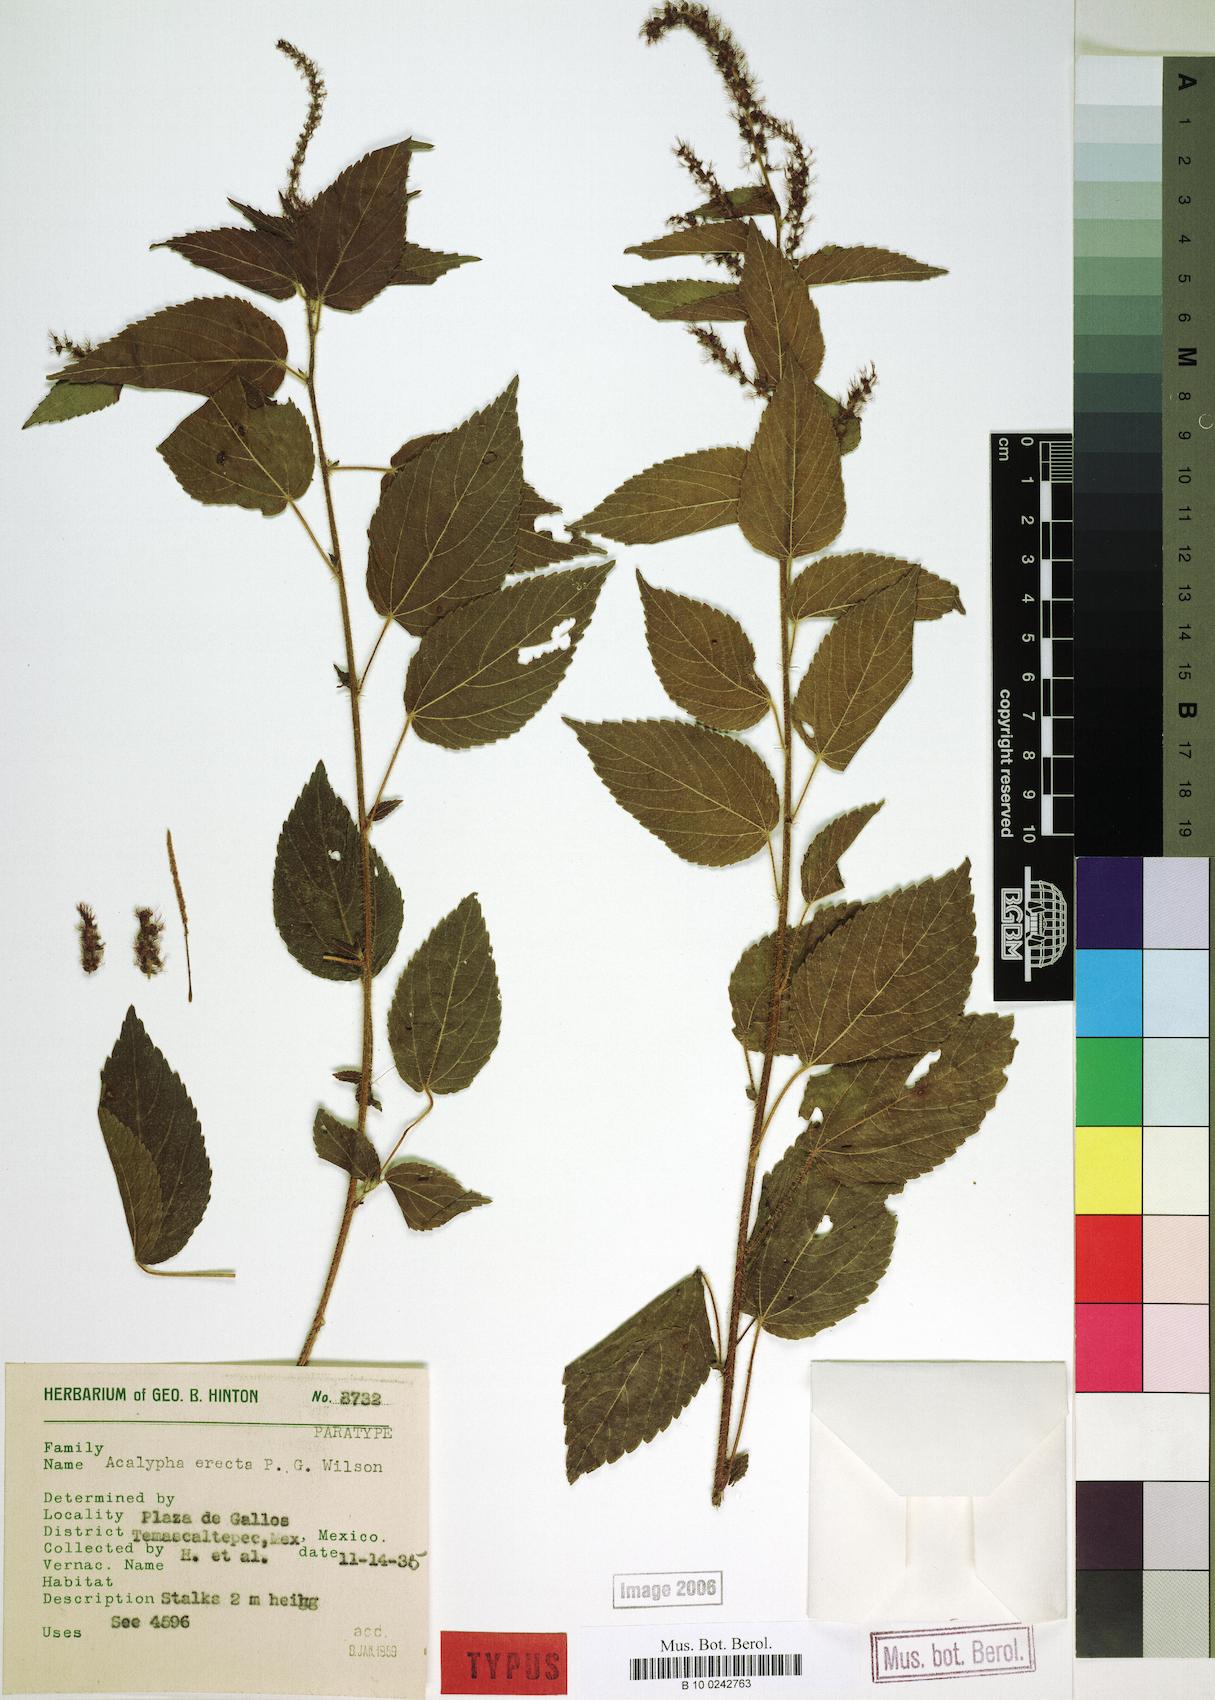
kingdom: Plantae
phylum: Tracheophyta
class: Magnoliopsida
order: Malpighiales
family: Euphorbiaceae
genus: Acalypha
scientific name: Acalypha erecta
